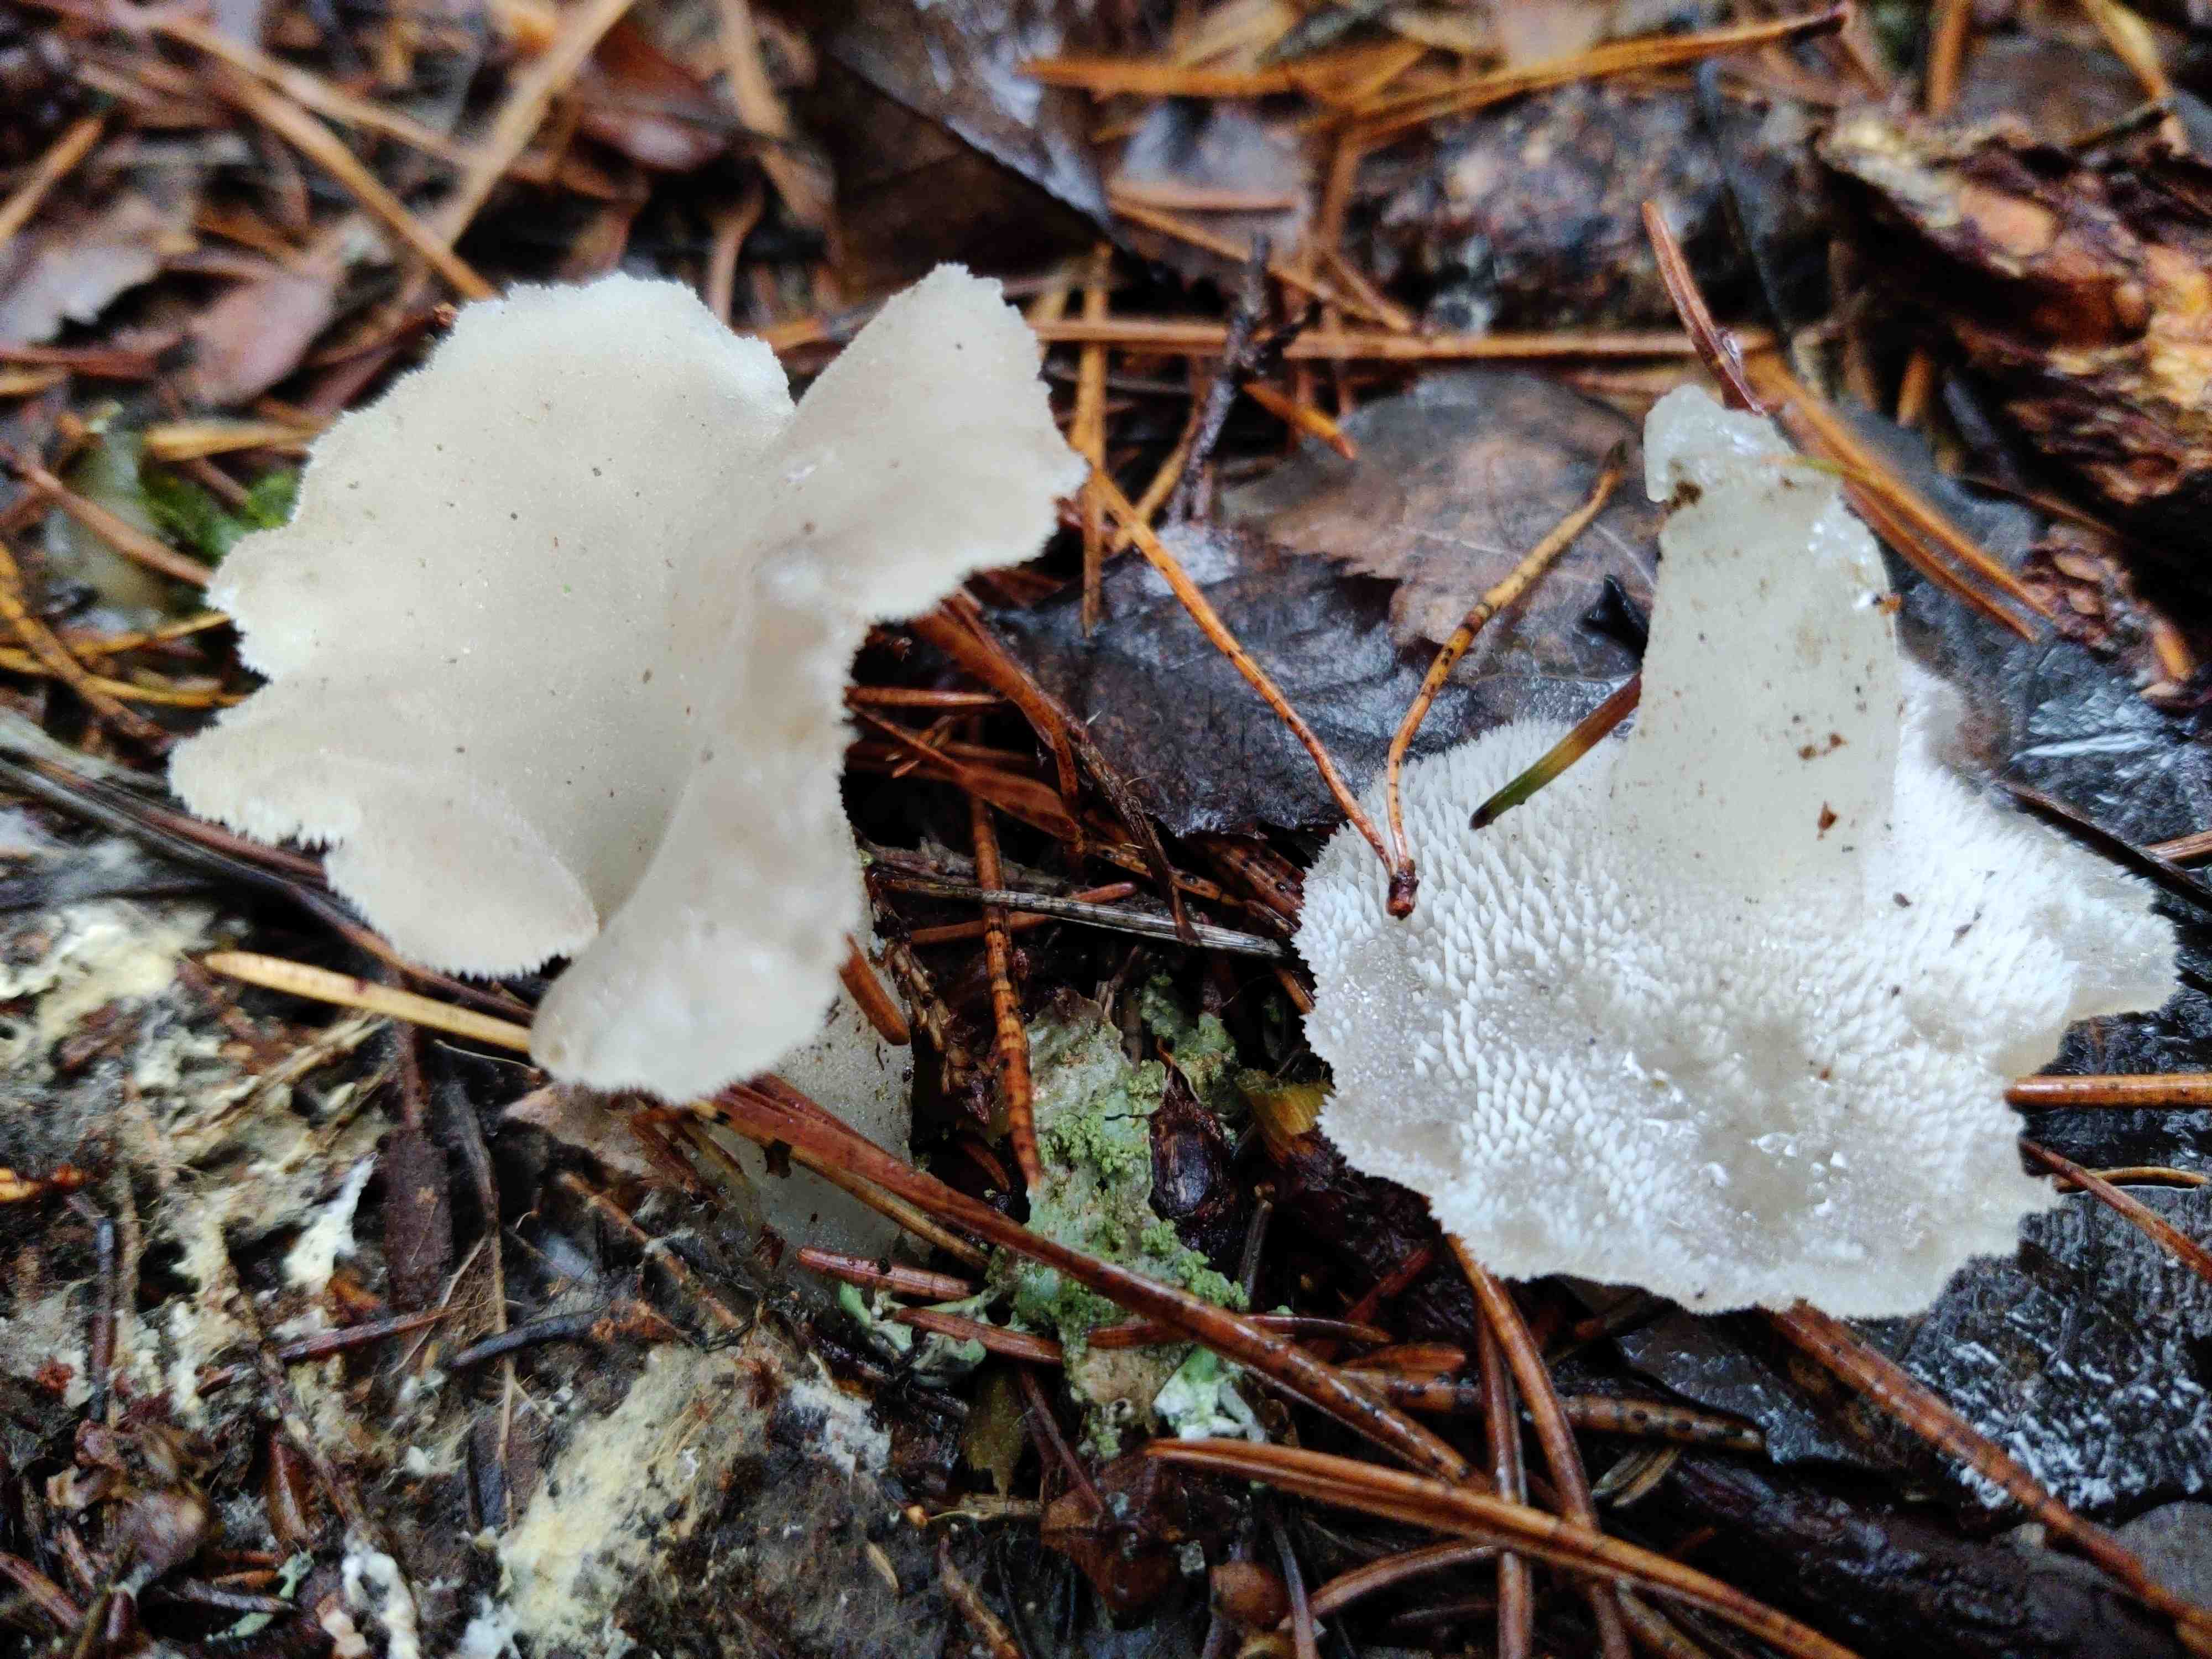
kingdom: Fungi
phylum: Basidiomycota
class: Agaricomycetes
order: Auriculariales
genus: Pseudohydnum
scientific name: Pseudohydnum gelatinosum
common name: bævretand
